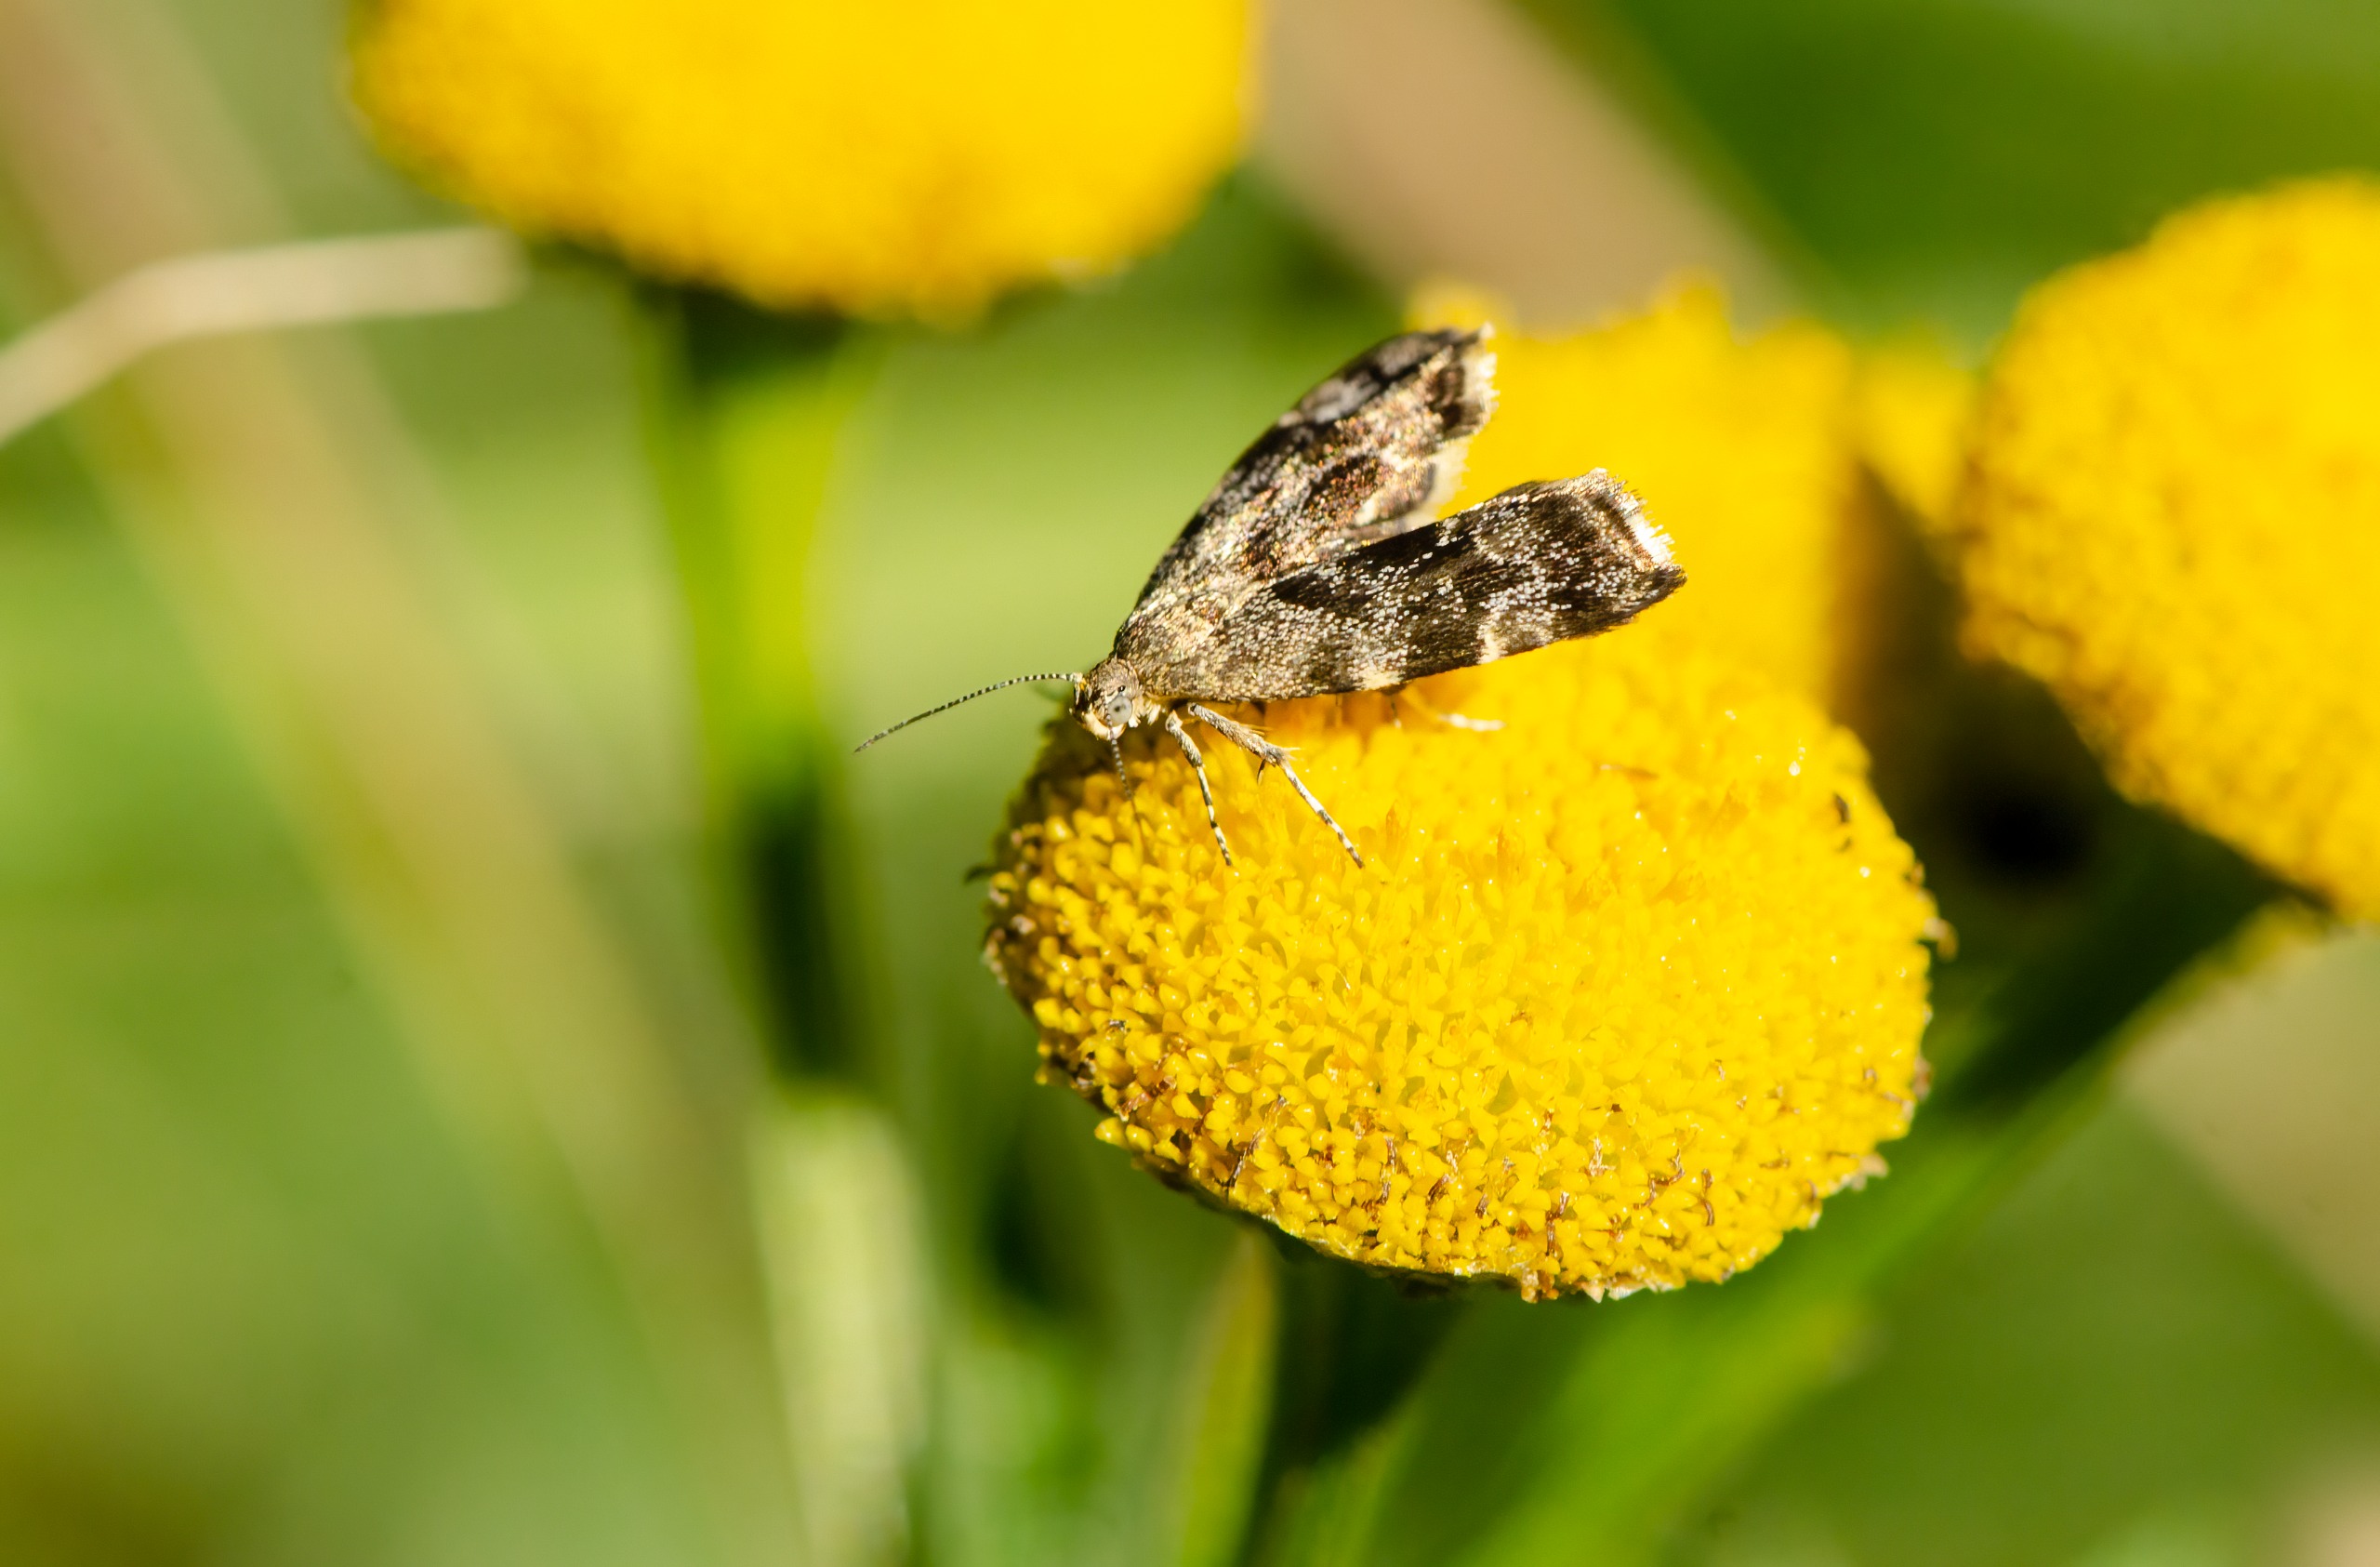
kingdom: Animalia
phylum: Arthropoda
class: Insecta
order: Lepidoptera
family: Choreutidae
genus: Anthophila
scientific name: Anthophila fabriciana
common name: Bredvinget nældevikler
